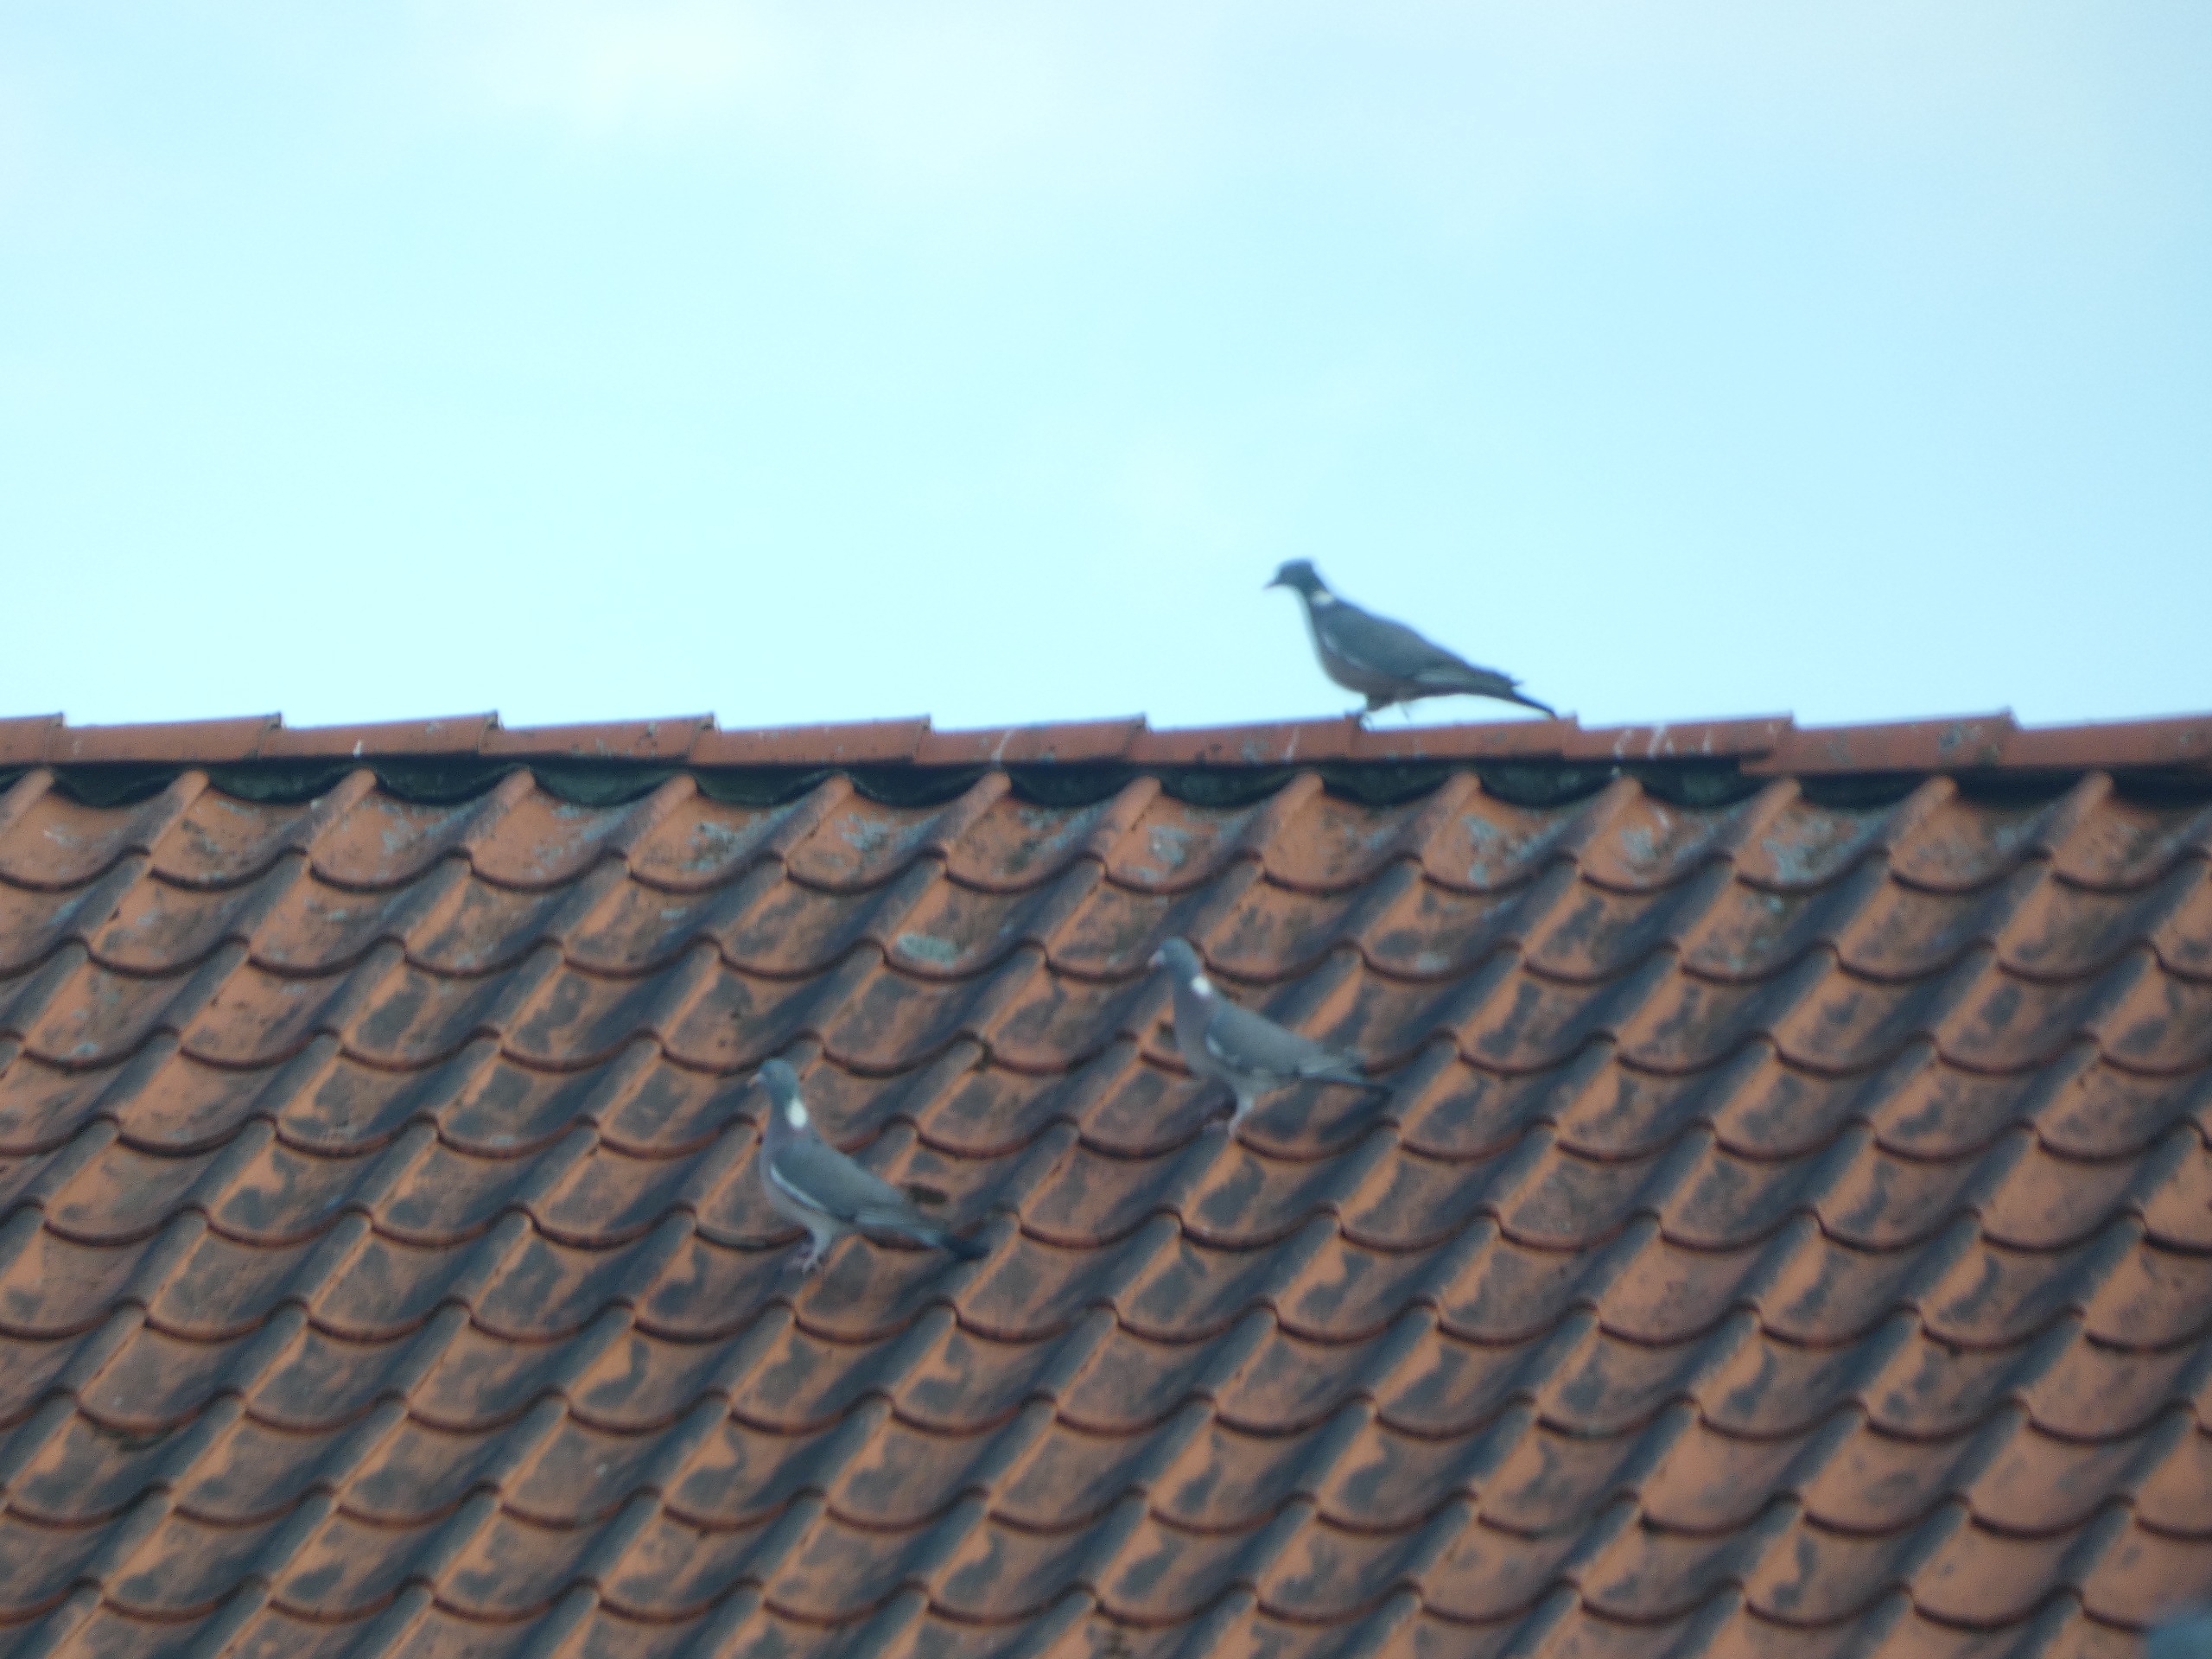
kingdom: Animalia
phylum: Chordata
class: Aves
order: Columbiformes
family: Columbidae
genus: Columba
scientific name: Columba palumbus
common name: Ringdue
